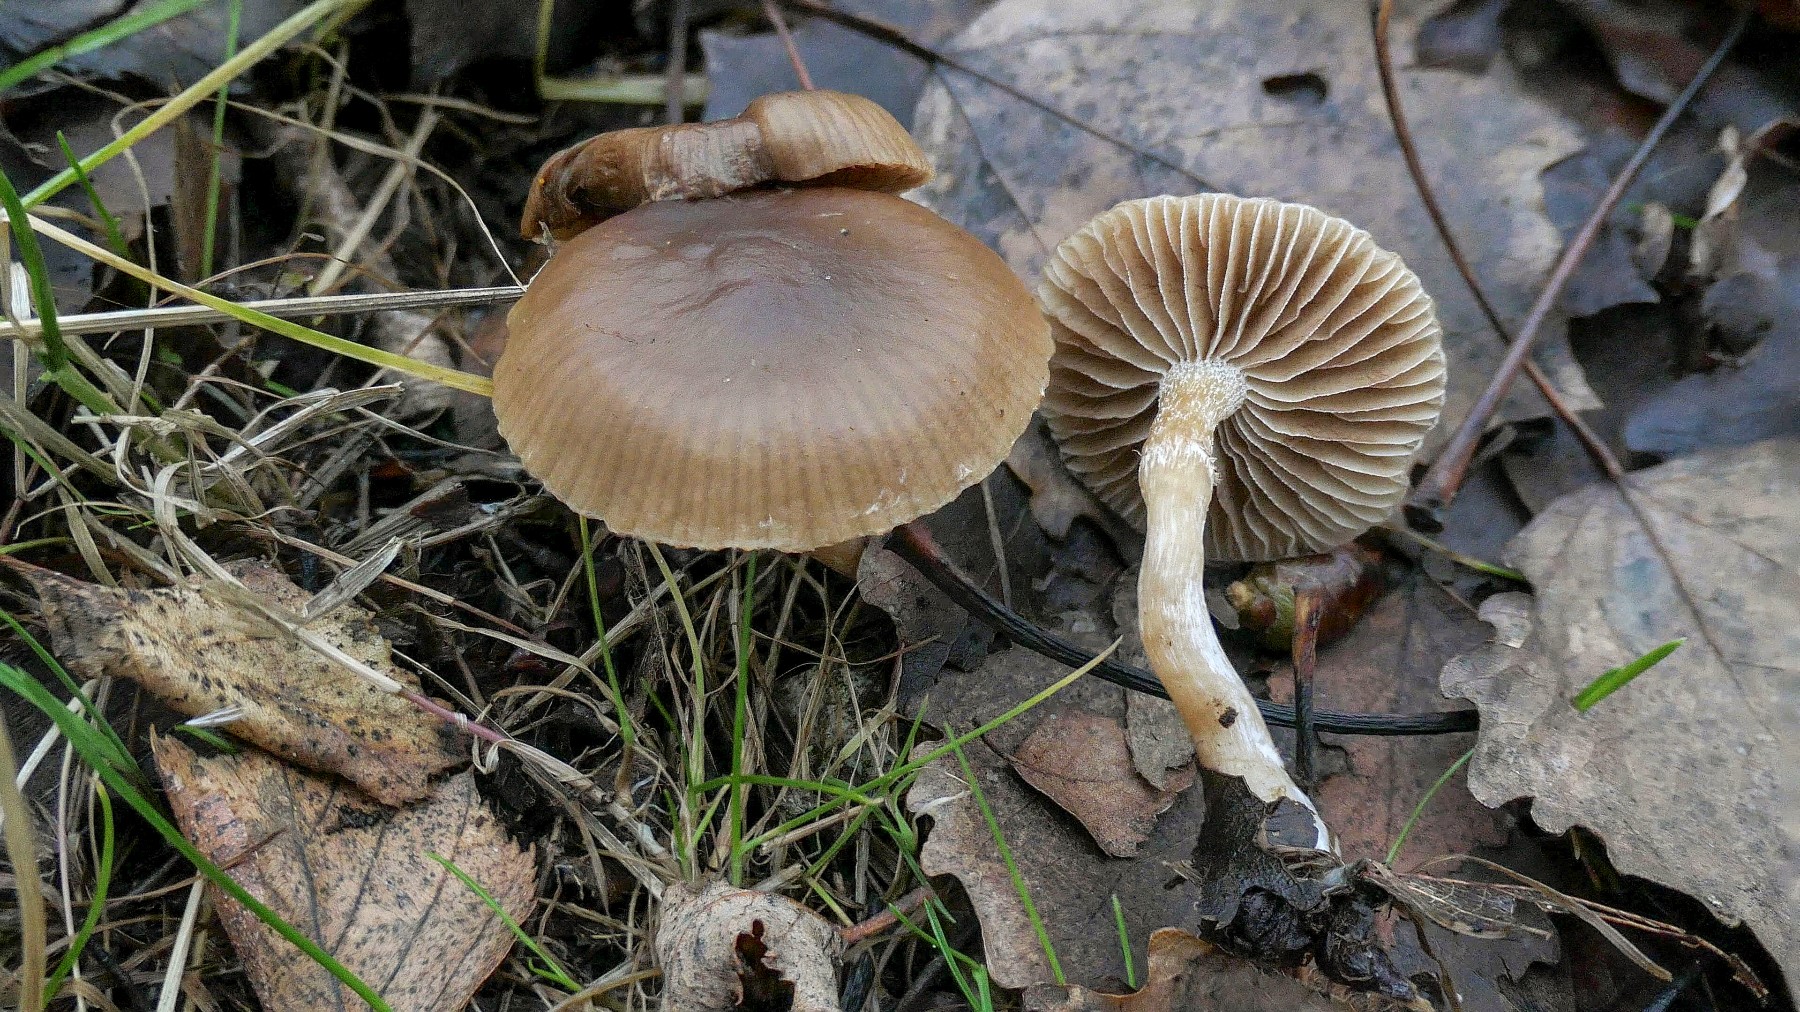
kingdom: Fungi
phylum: Basidiomycota
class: Agaricomycetes
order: Agaricales
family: Strophariaceae
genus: Meottomyces
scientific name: Meottomyces dissimulans
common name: smudsigbrun vinterskælhat
